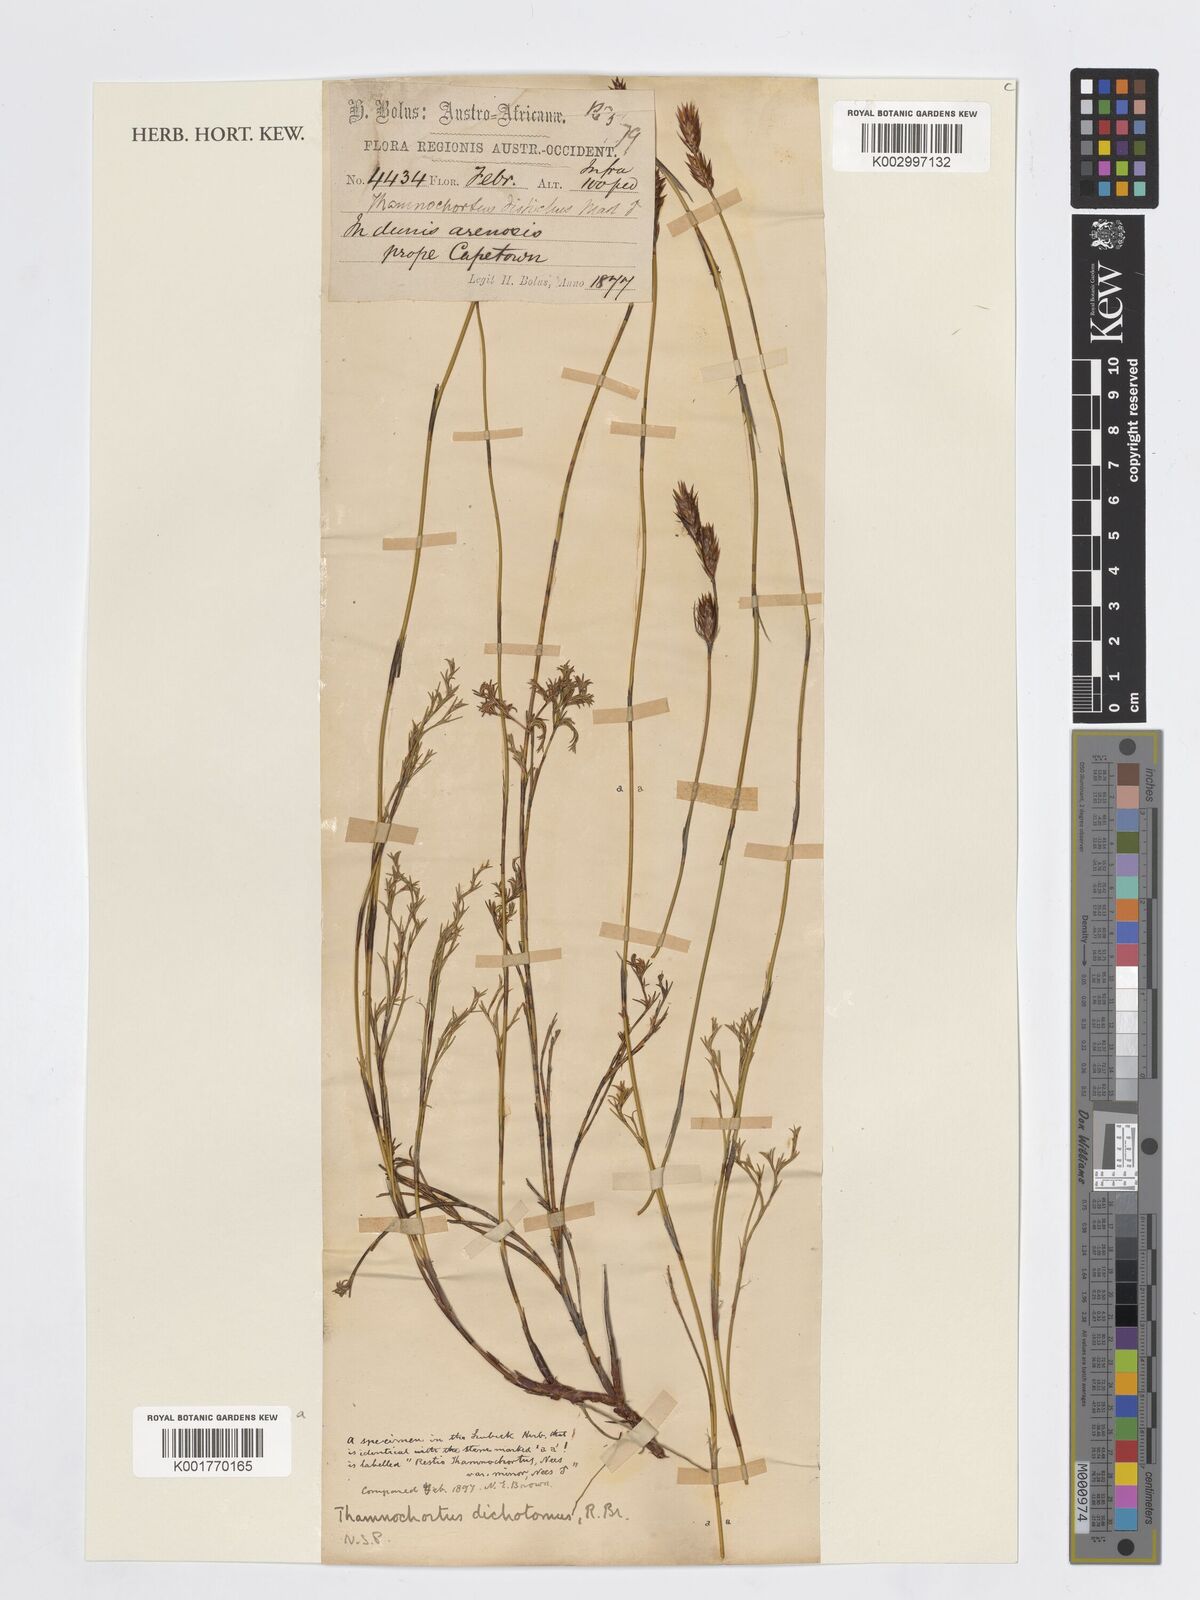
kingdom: Plantae
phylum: Tracheophyta
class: Liliopsida
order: Poales
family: Restionaceae
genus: Thamnochortus
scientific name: Thamnochortus lucens
